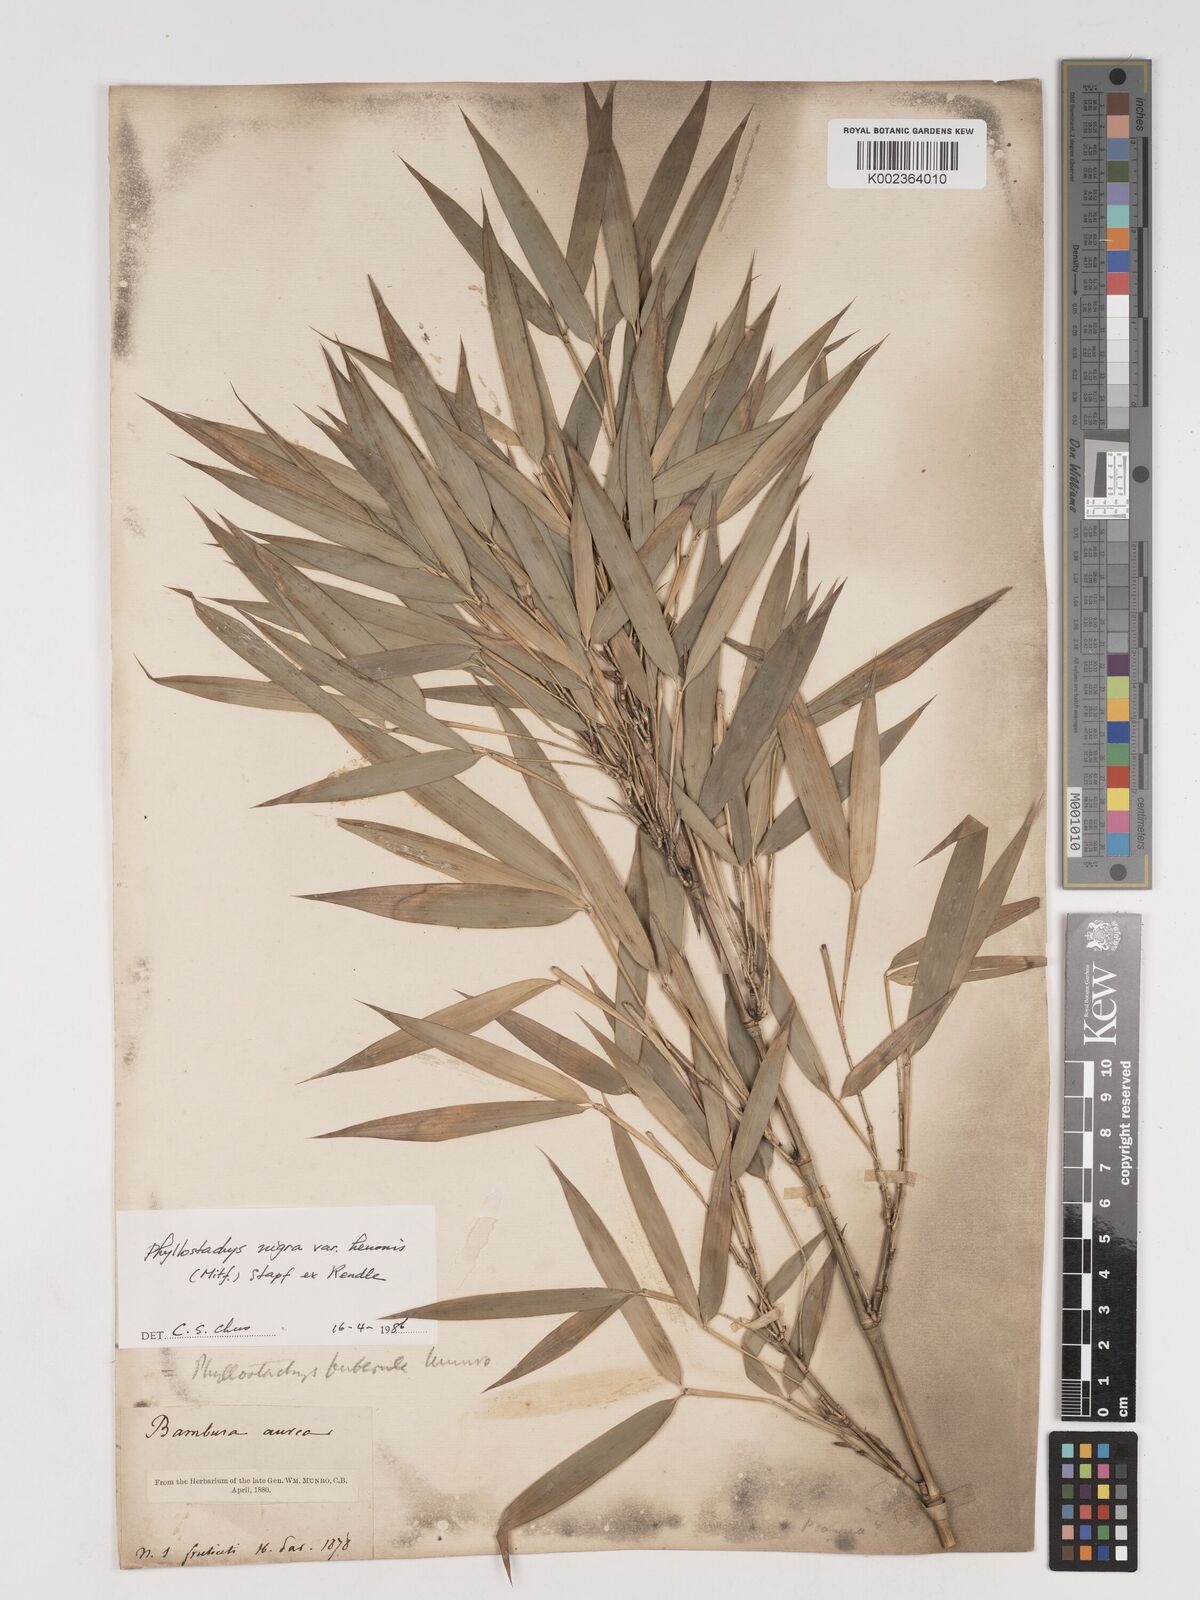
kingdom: Plantae
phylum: Tracheophyta
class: Liliopsida
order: Poales
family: Poaceae
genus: Phyllostachys
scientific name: Phyllostachys nigra
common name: Black bamboo
